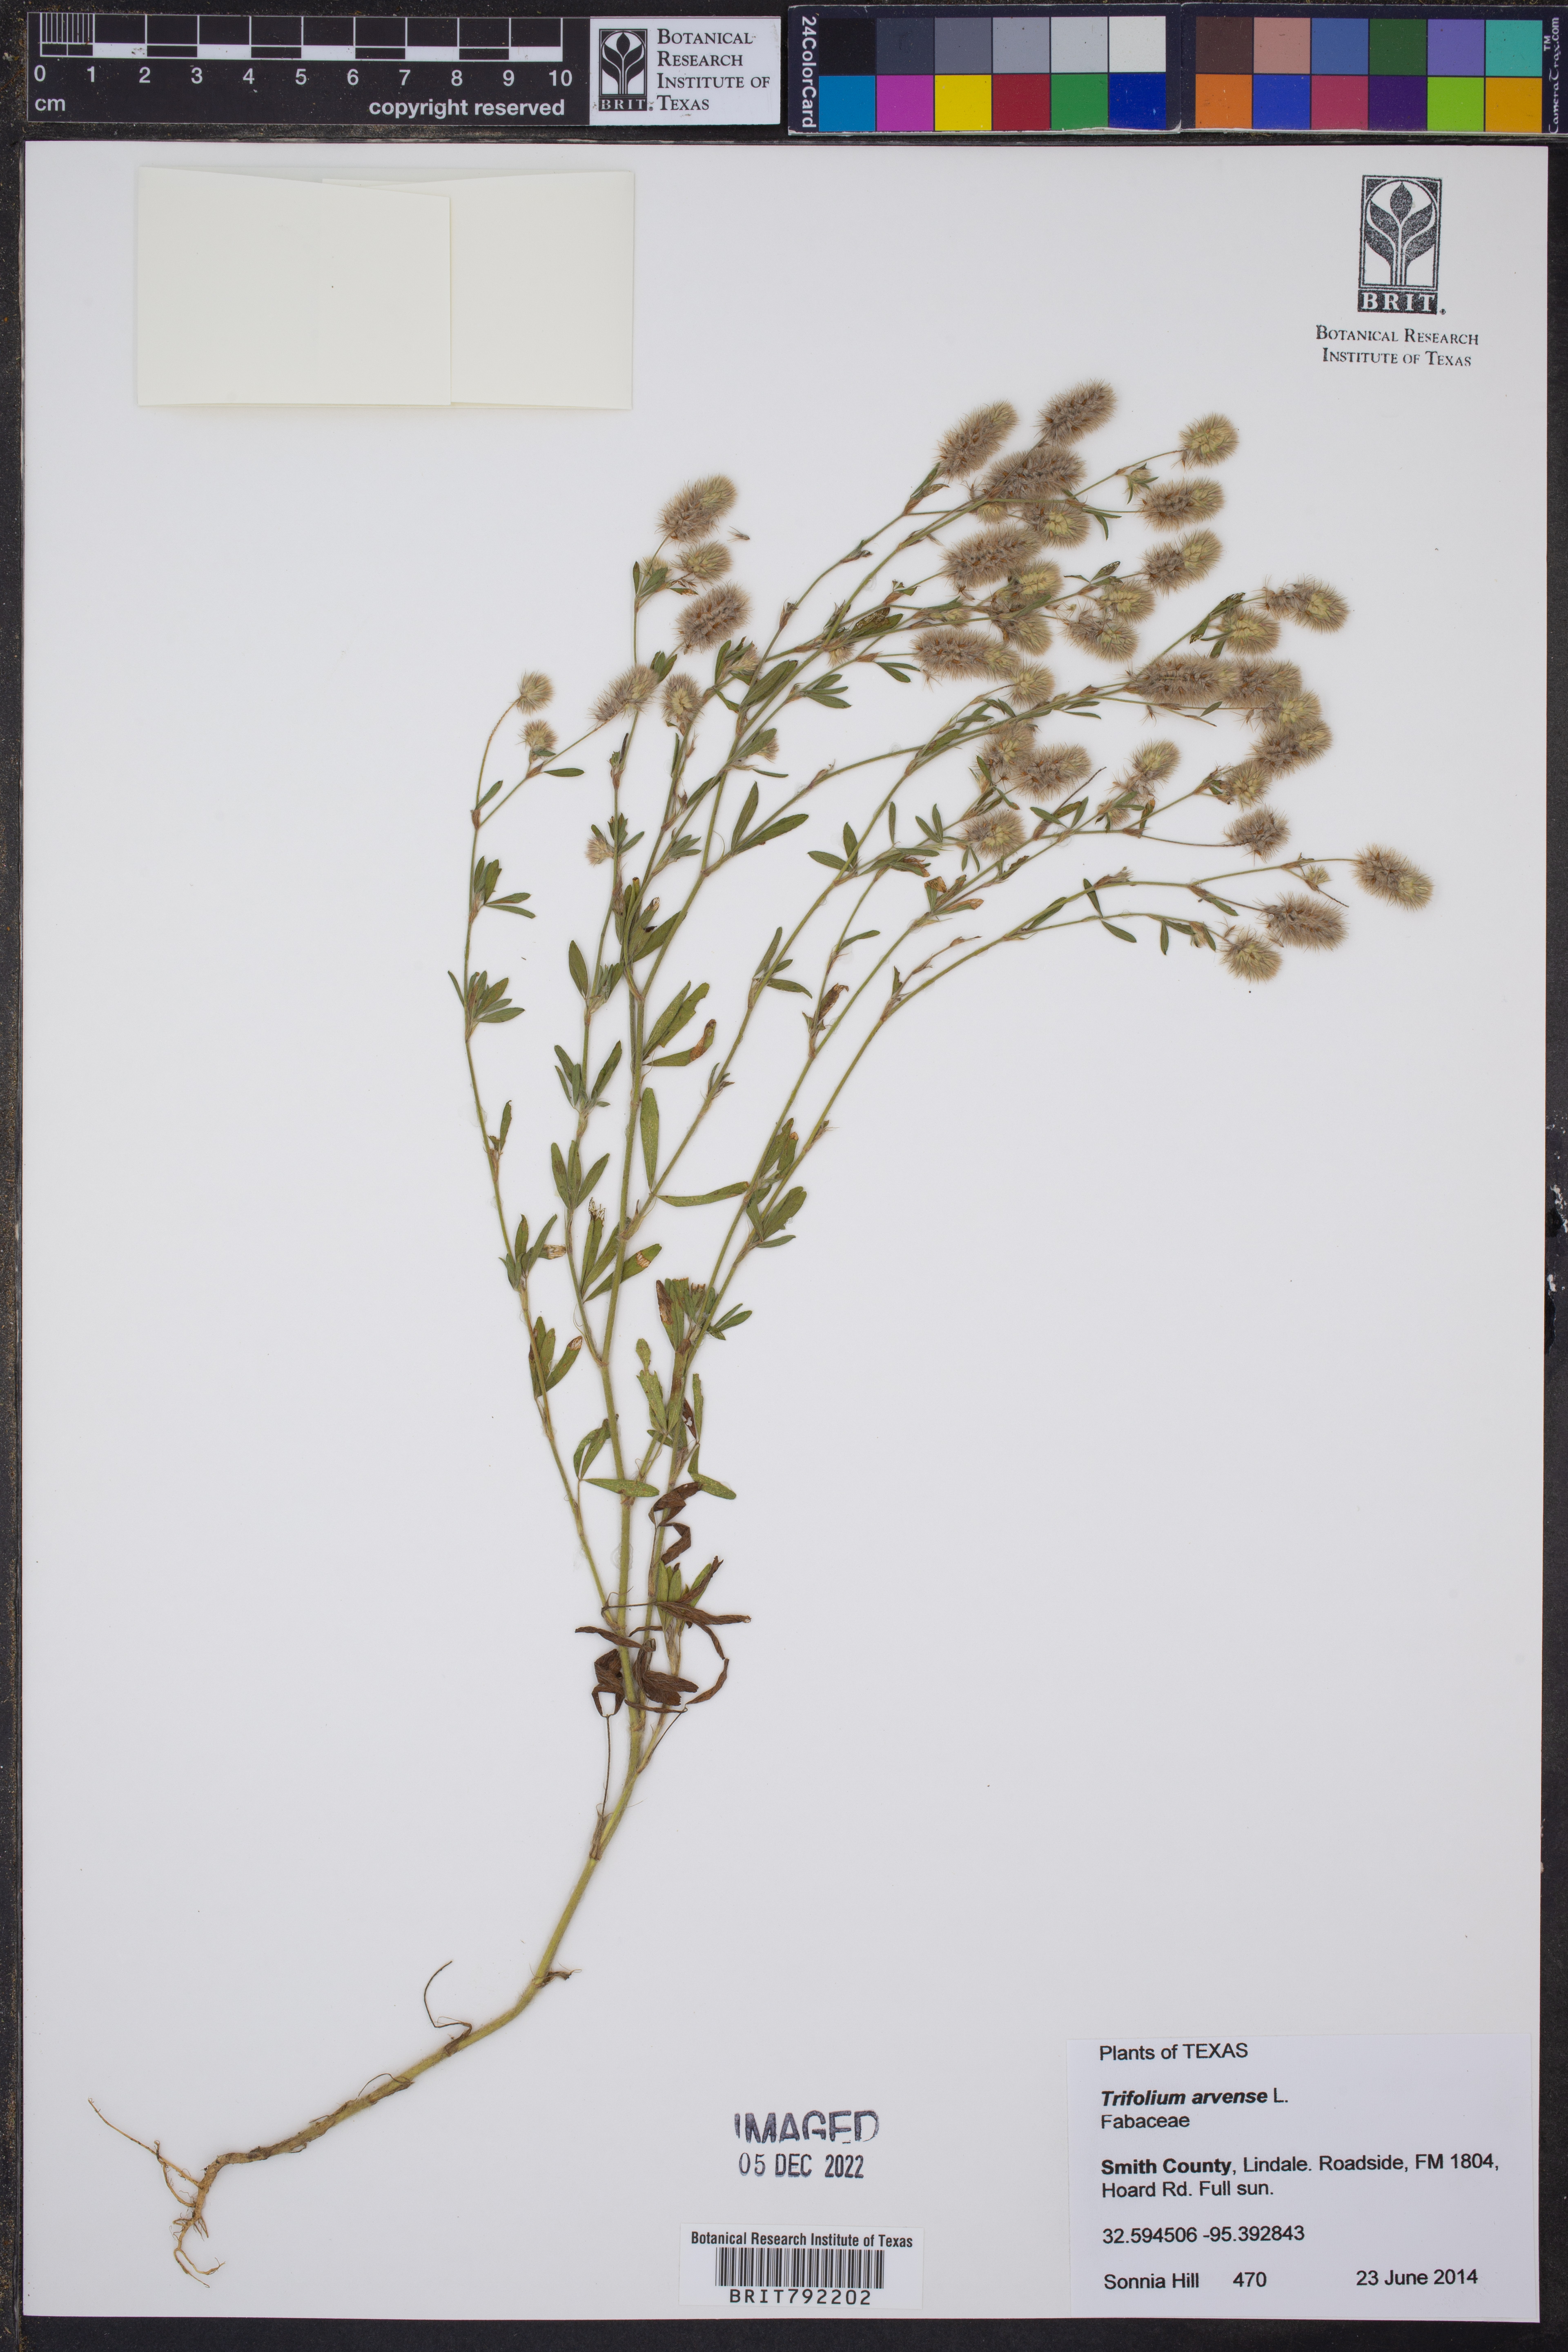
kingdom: Plantae
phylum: Tracheophyta
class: Magnoliopsida
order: Fabales
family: Fabaceae
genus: Trifolium
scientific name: Trifolium arvense
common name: Hare's-foot clover
